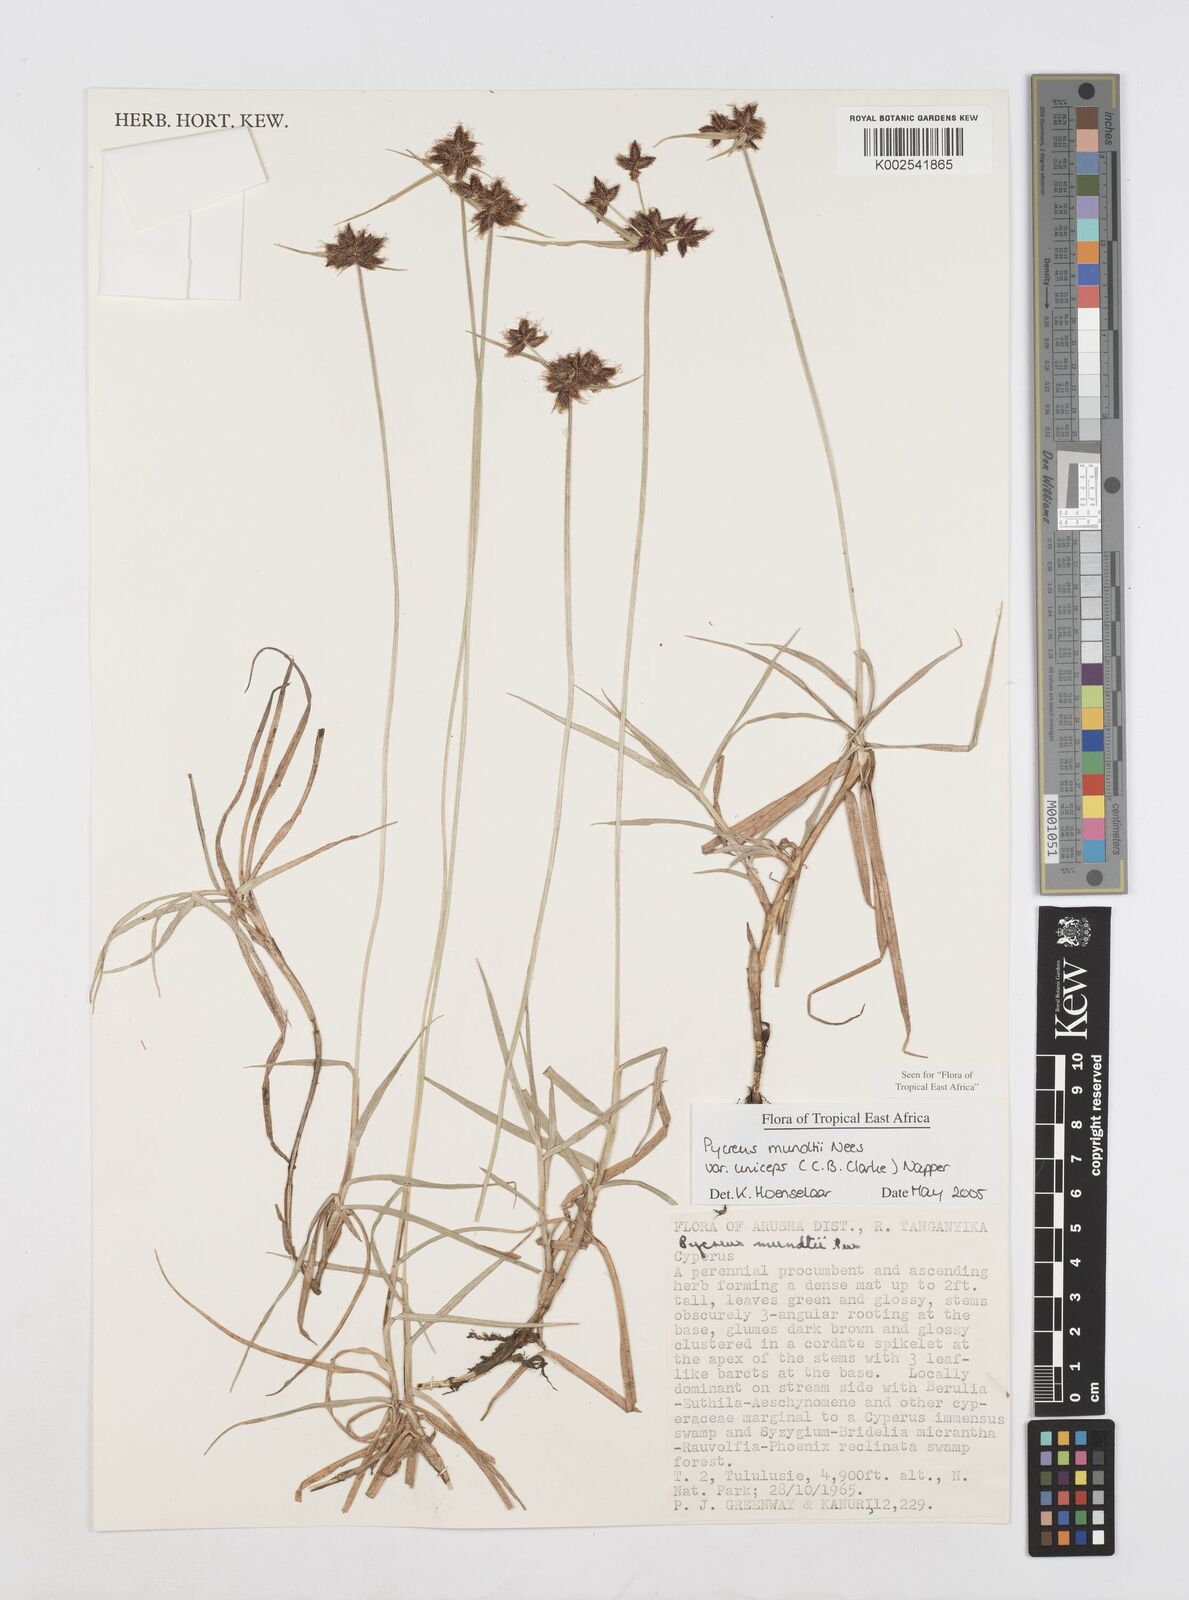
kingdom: Plantae
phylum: Tracheophyta
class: Liliopsida
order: Poales
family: Cyperaceae
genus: Cyperus
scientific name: Cyperus mundii
